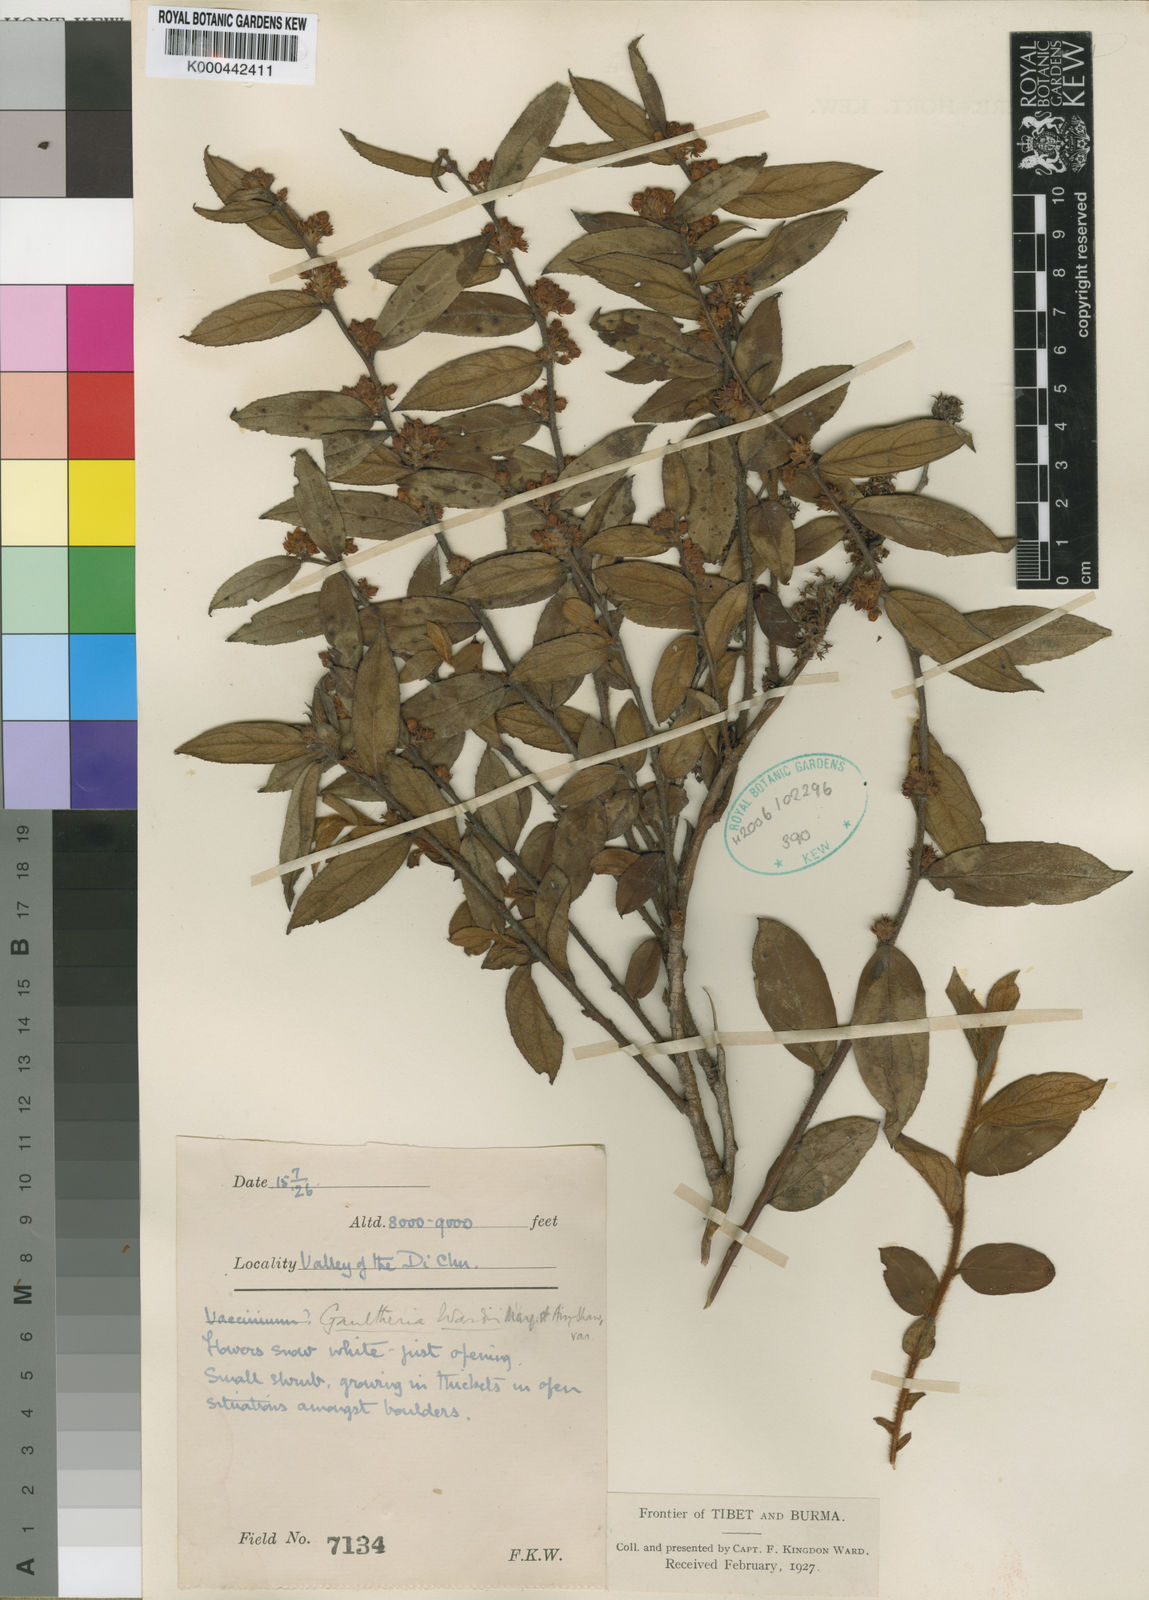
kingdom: Plantae
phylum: Tracheophyta
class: Magnoliopsida
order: Ericales
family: Ericaceae
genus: Gaultheria
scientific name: Gaultheria wardii
